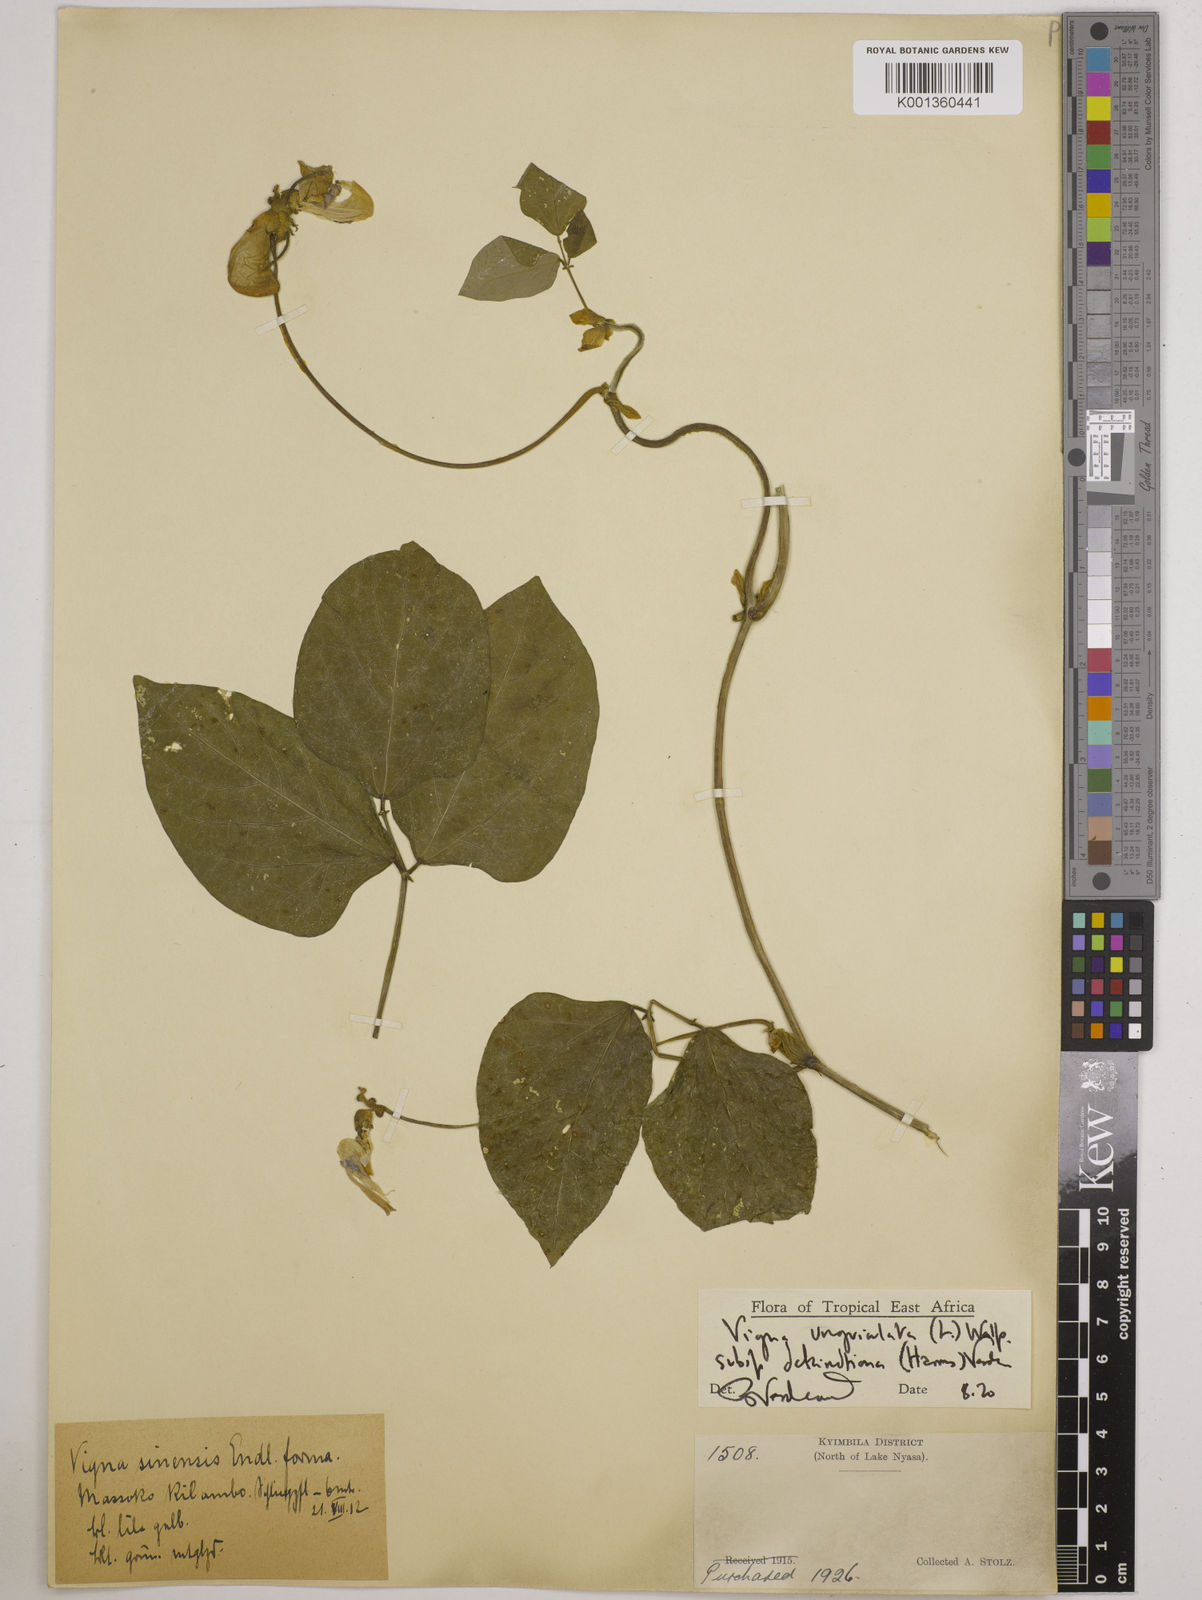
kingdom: Plantae
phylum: Tracheophyta
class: Magnoliopsida
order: Fabales
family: Fabaceae
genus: Vigna
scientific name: Vigna
